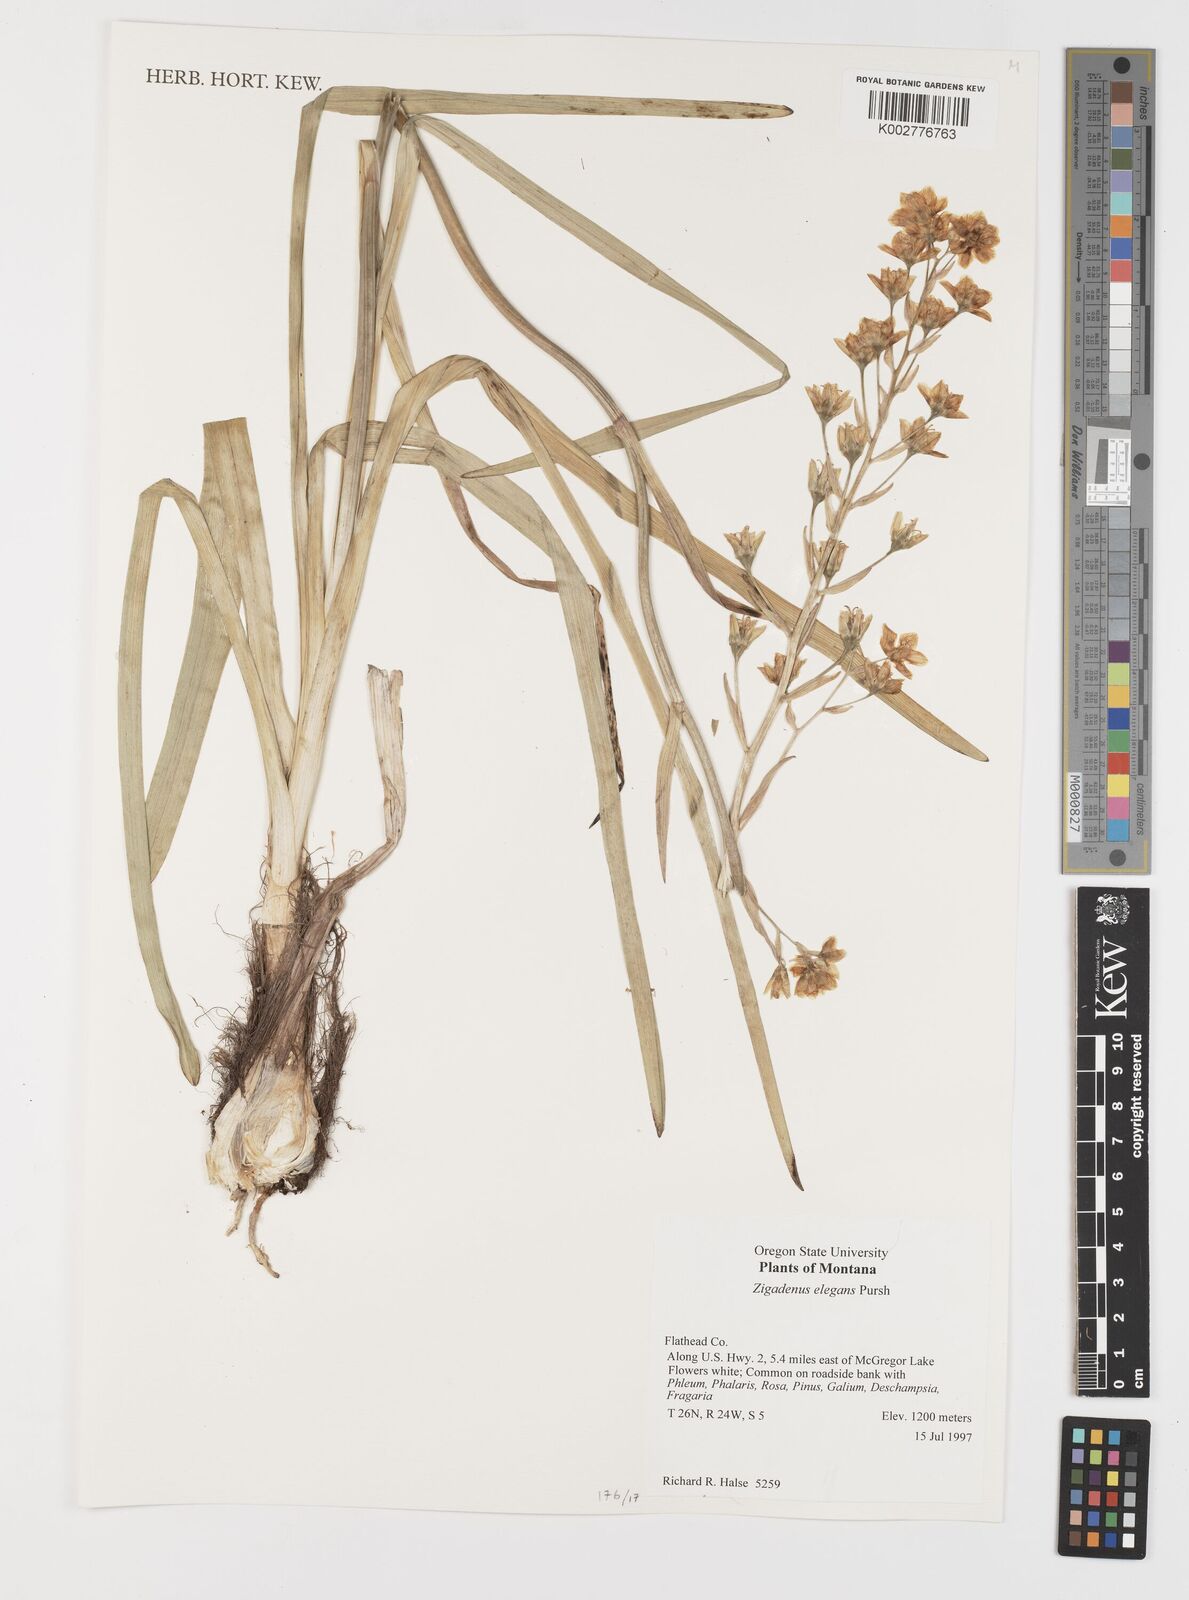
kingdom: Plantae
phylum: Tracheophyta
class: Liliopsida
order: Liliales
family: Melanthiaceae
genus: Anticlea
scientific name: Anticlea elegans
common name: Mountain death camas
